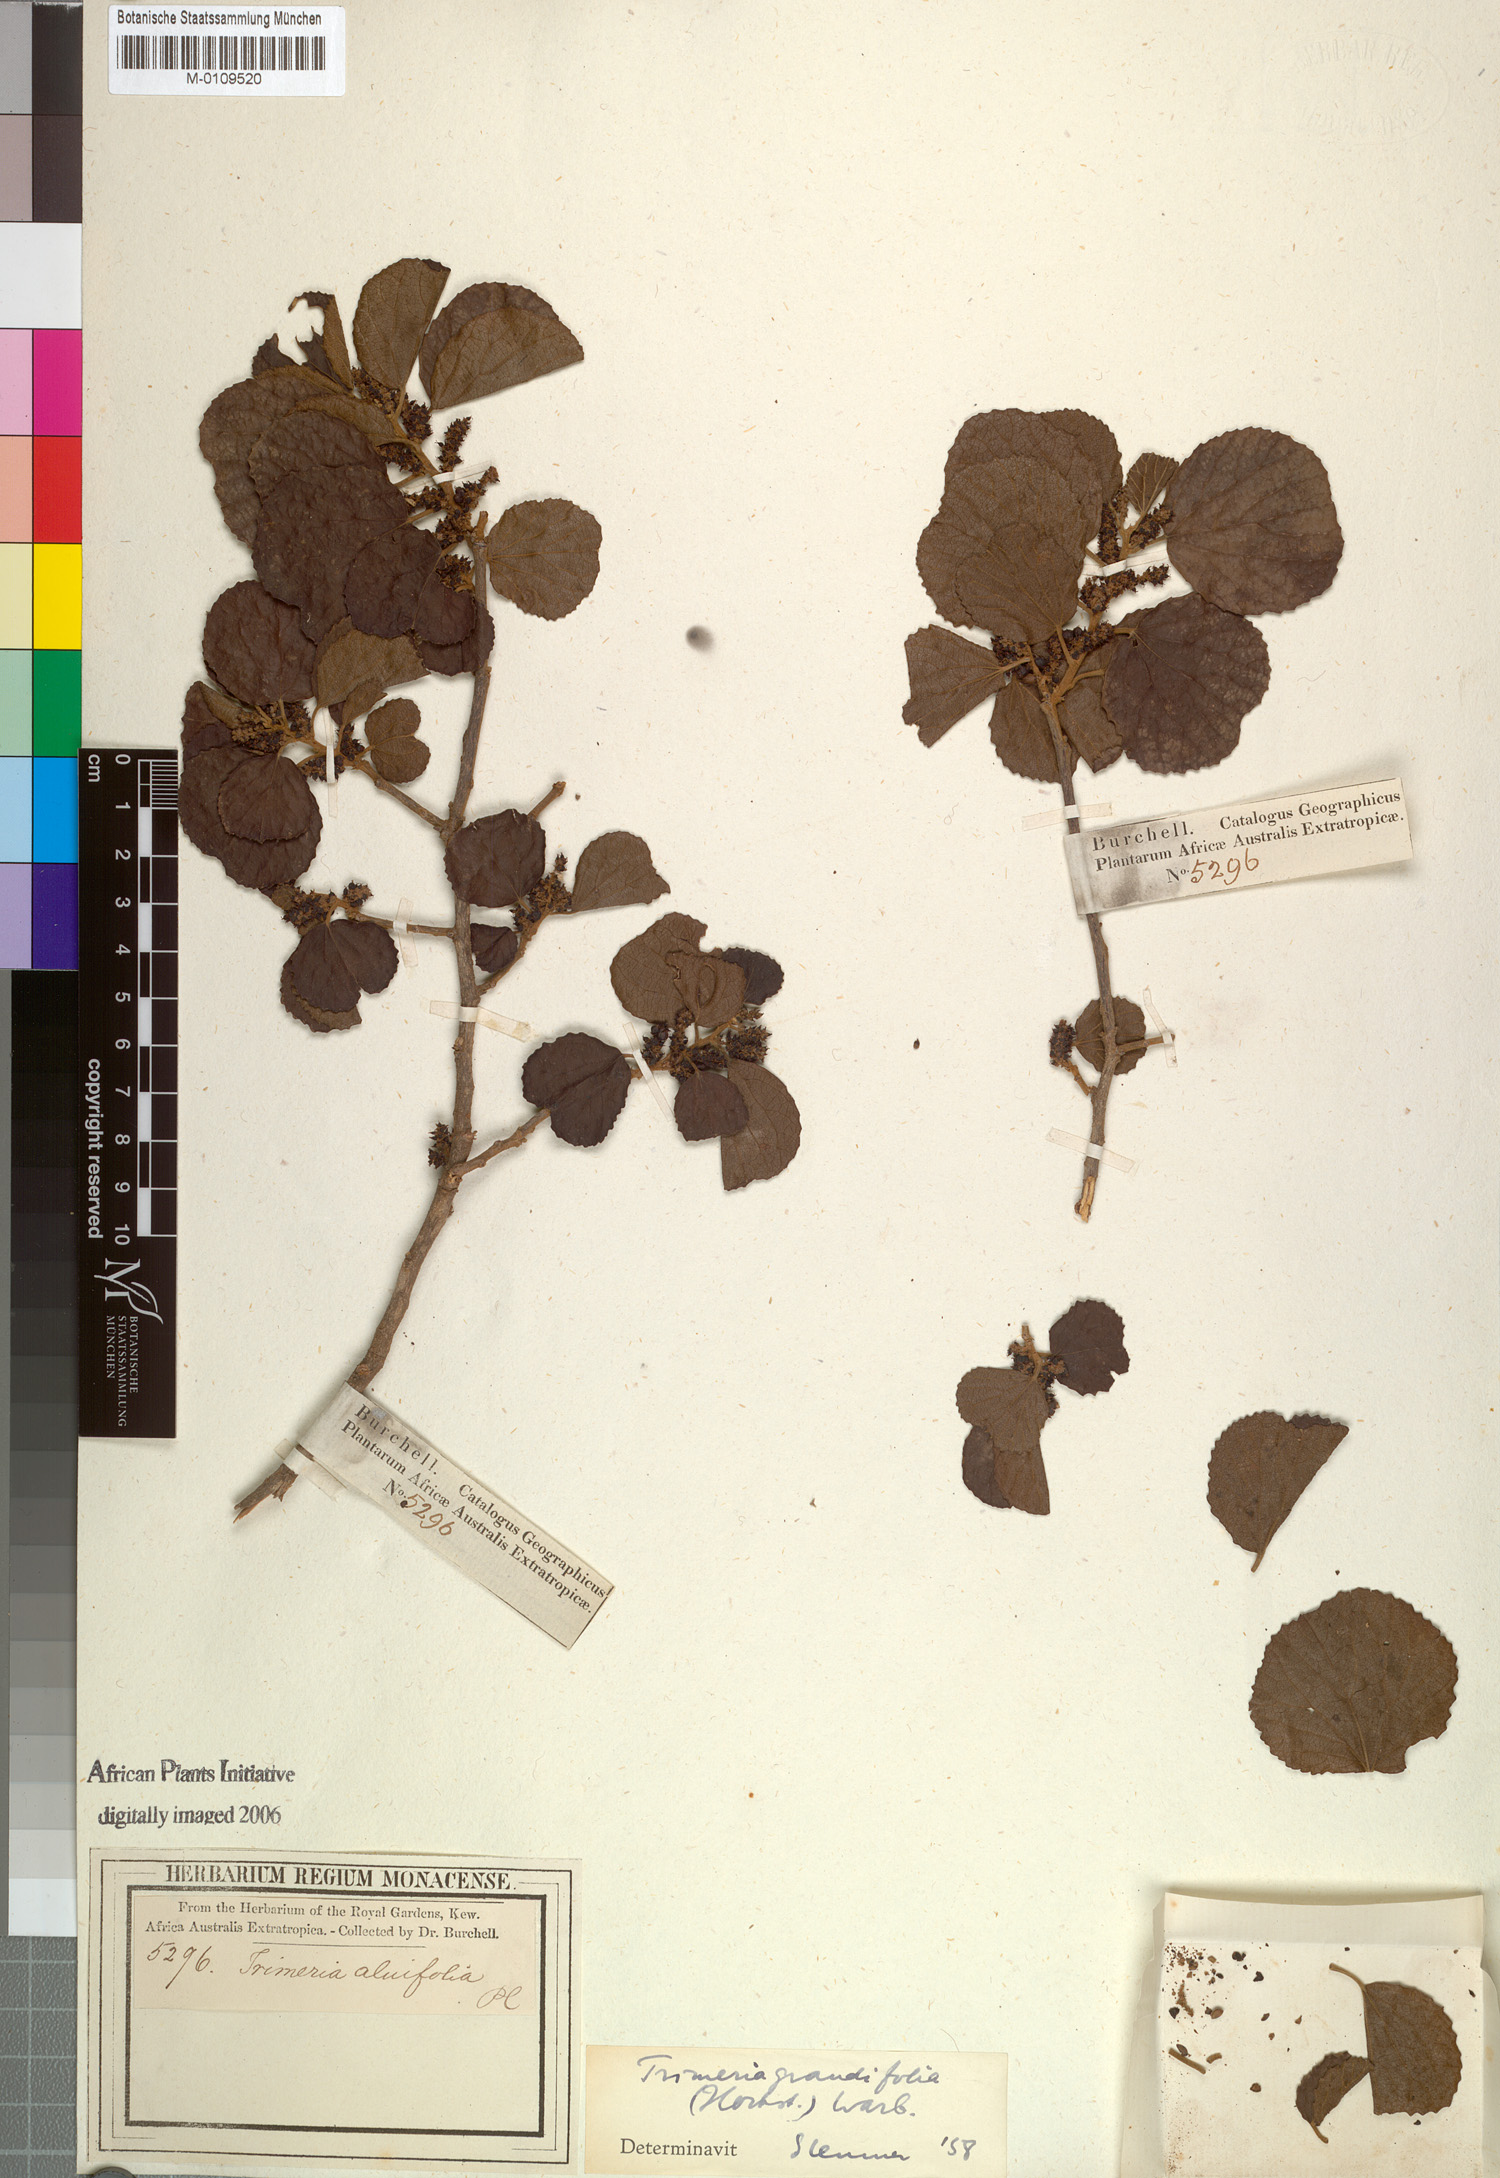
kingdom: Plantae
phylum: Tracheophyta
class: Magnoliopsida
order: Malpighiales
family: Salicaceae
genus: Trimeria
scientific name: Trimeria grandifolia
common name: Wild mulberry
